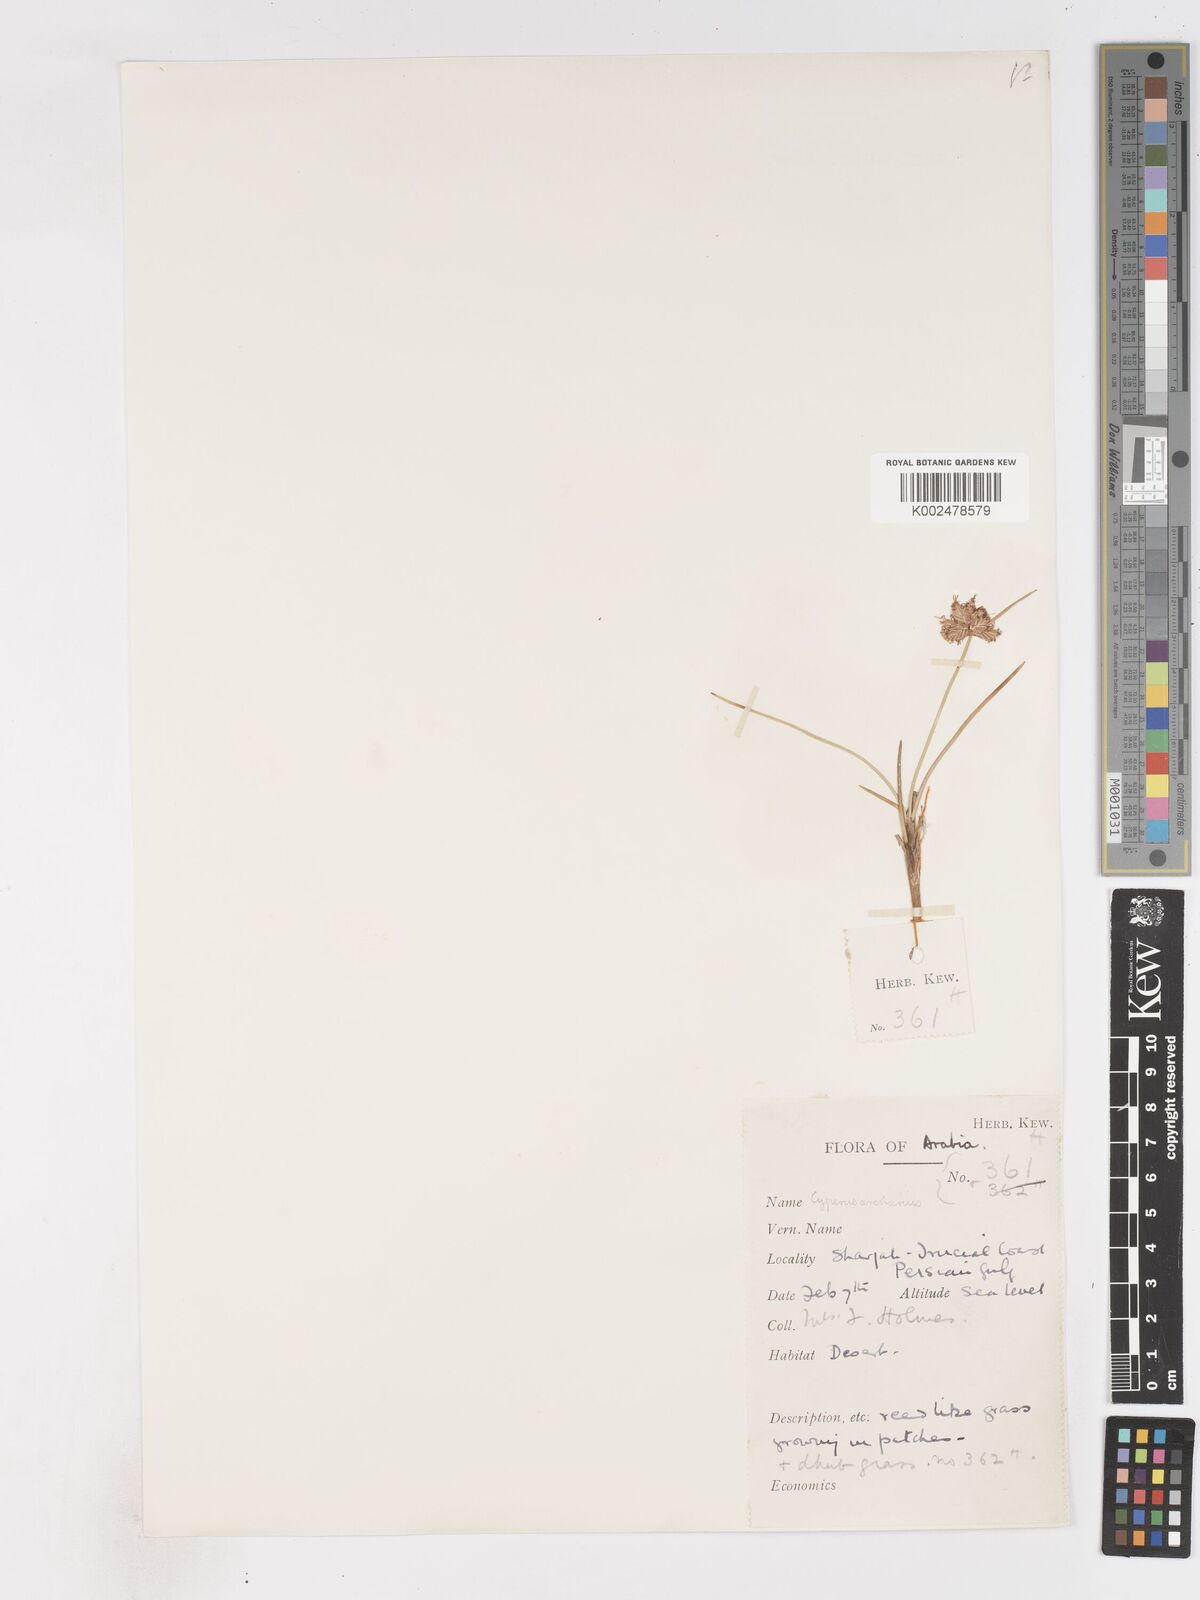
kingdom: Plantae
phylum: Tracheophyta
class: Liliopsida
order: Poales
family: Cyperaceae
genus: Cyperus
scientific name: Cyperus arenarius
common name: Dwarf sedge
